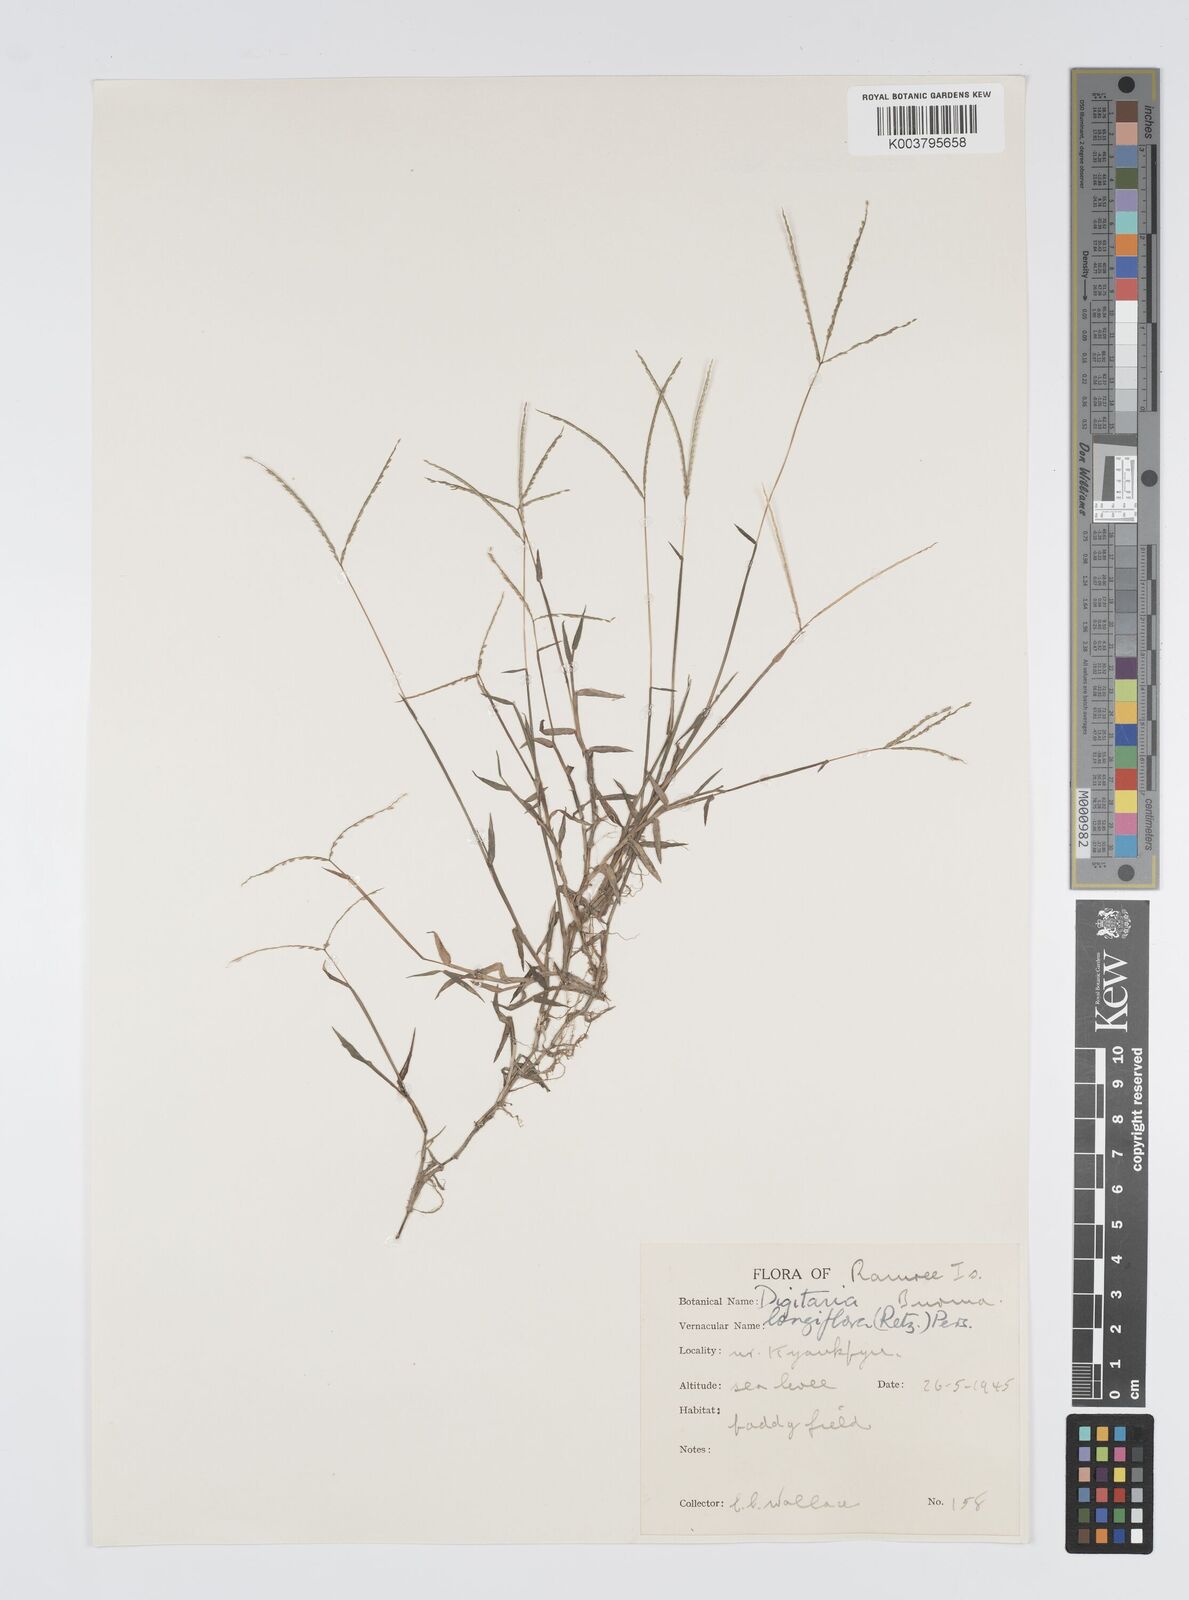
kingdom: Plantae
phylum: Tracheophyta
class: Liliopsida
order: Poales
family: Poaceae
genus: Digitaria
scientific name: Digitaria longiflora
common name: Wire crabgrass
